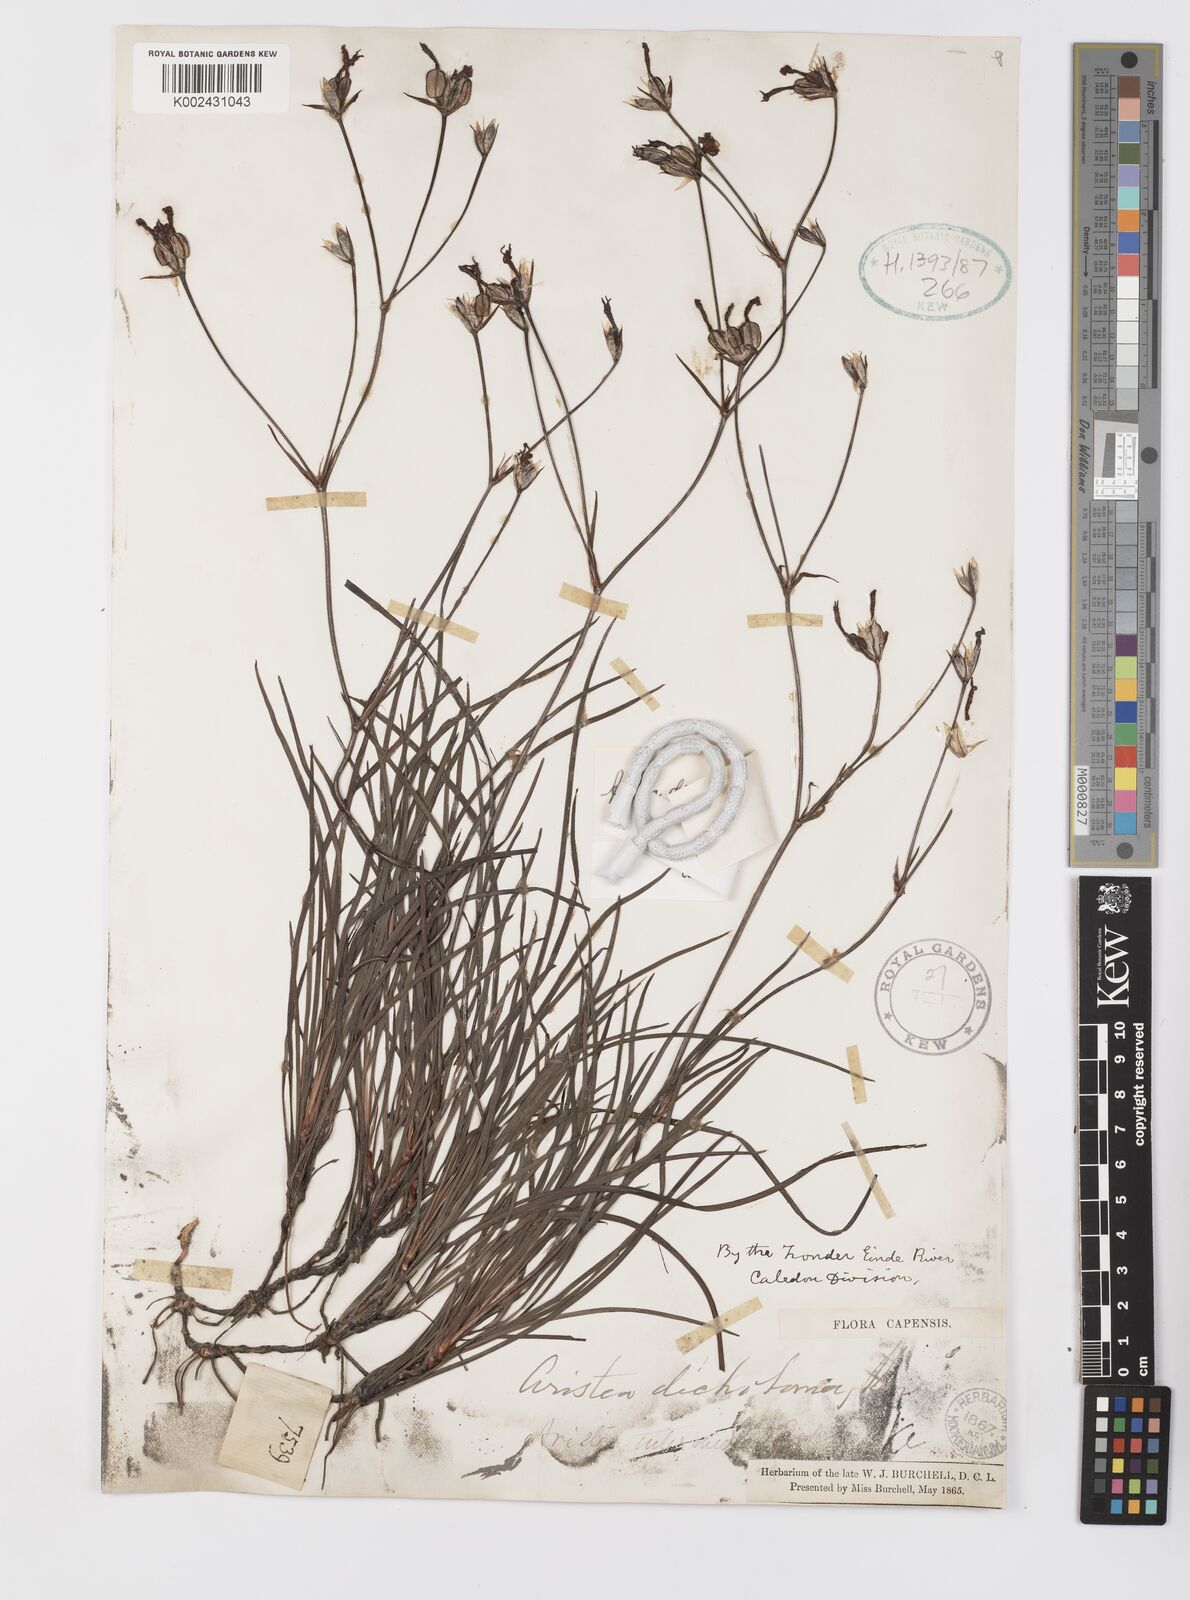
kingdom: Plantae
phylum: Tracheophyta
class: Liliopsida
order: Asparagales
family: Iridaceae
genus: Aristea
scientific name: Aristea dichotoma
